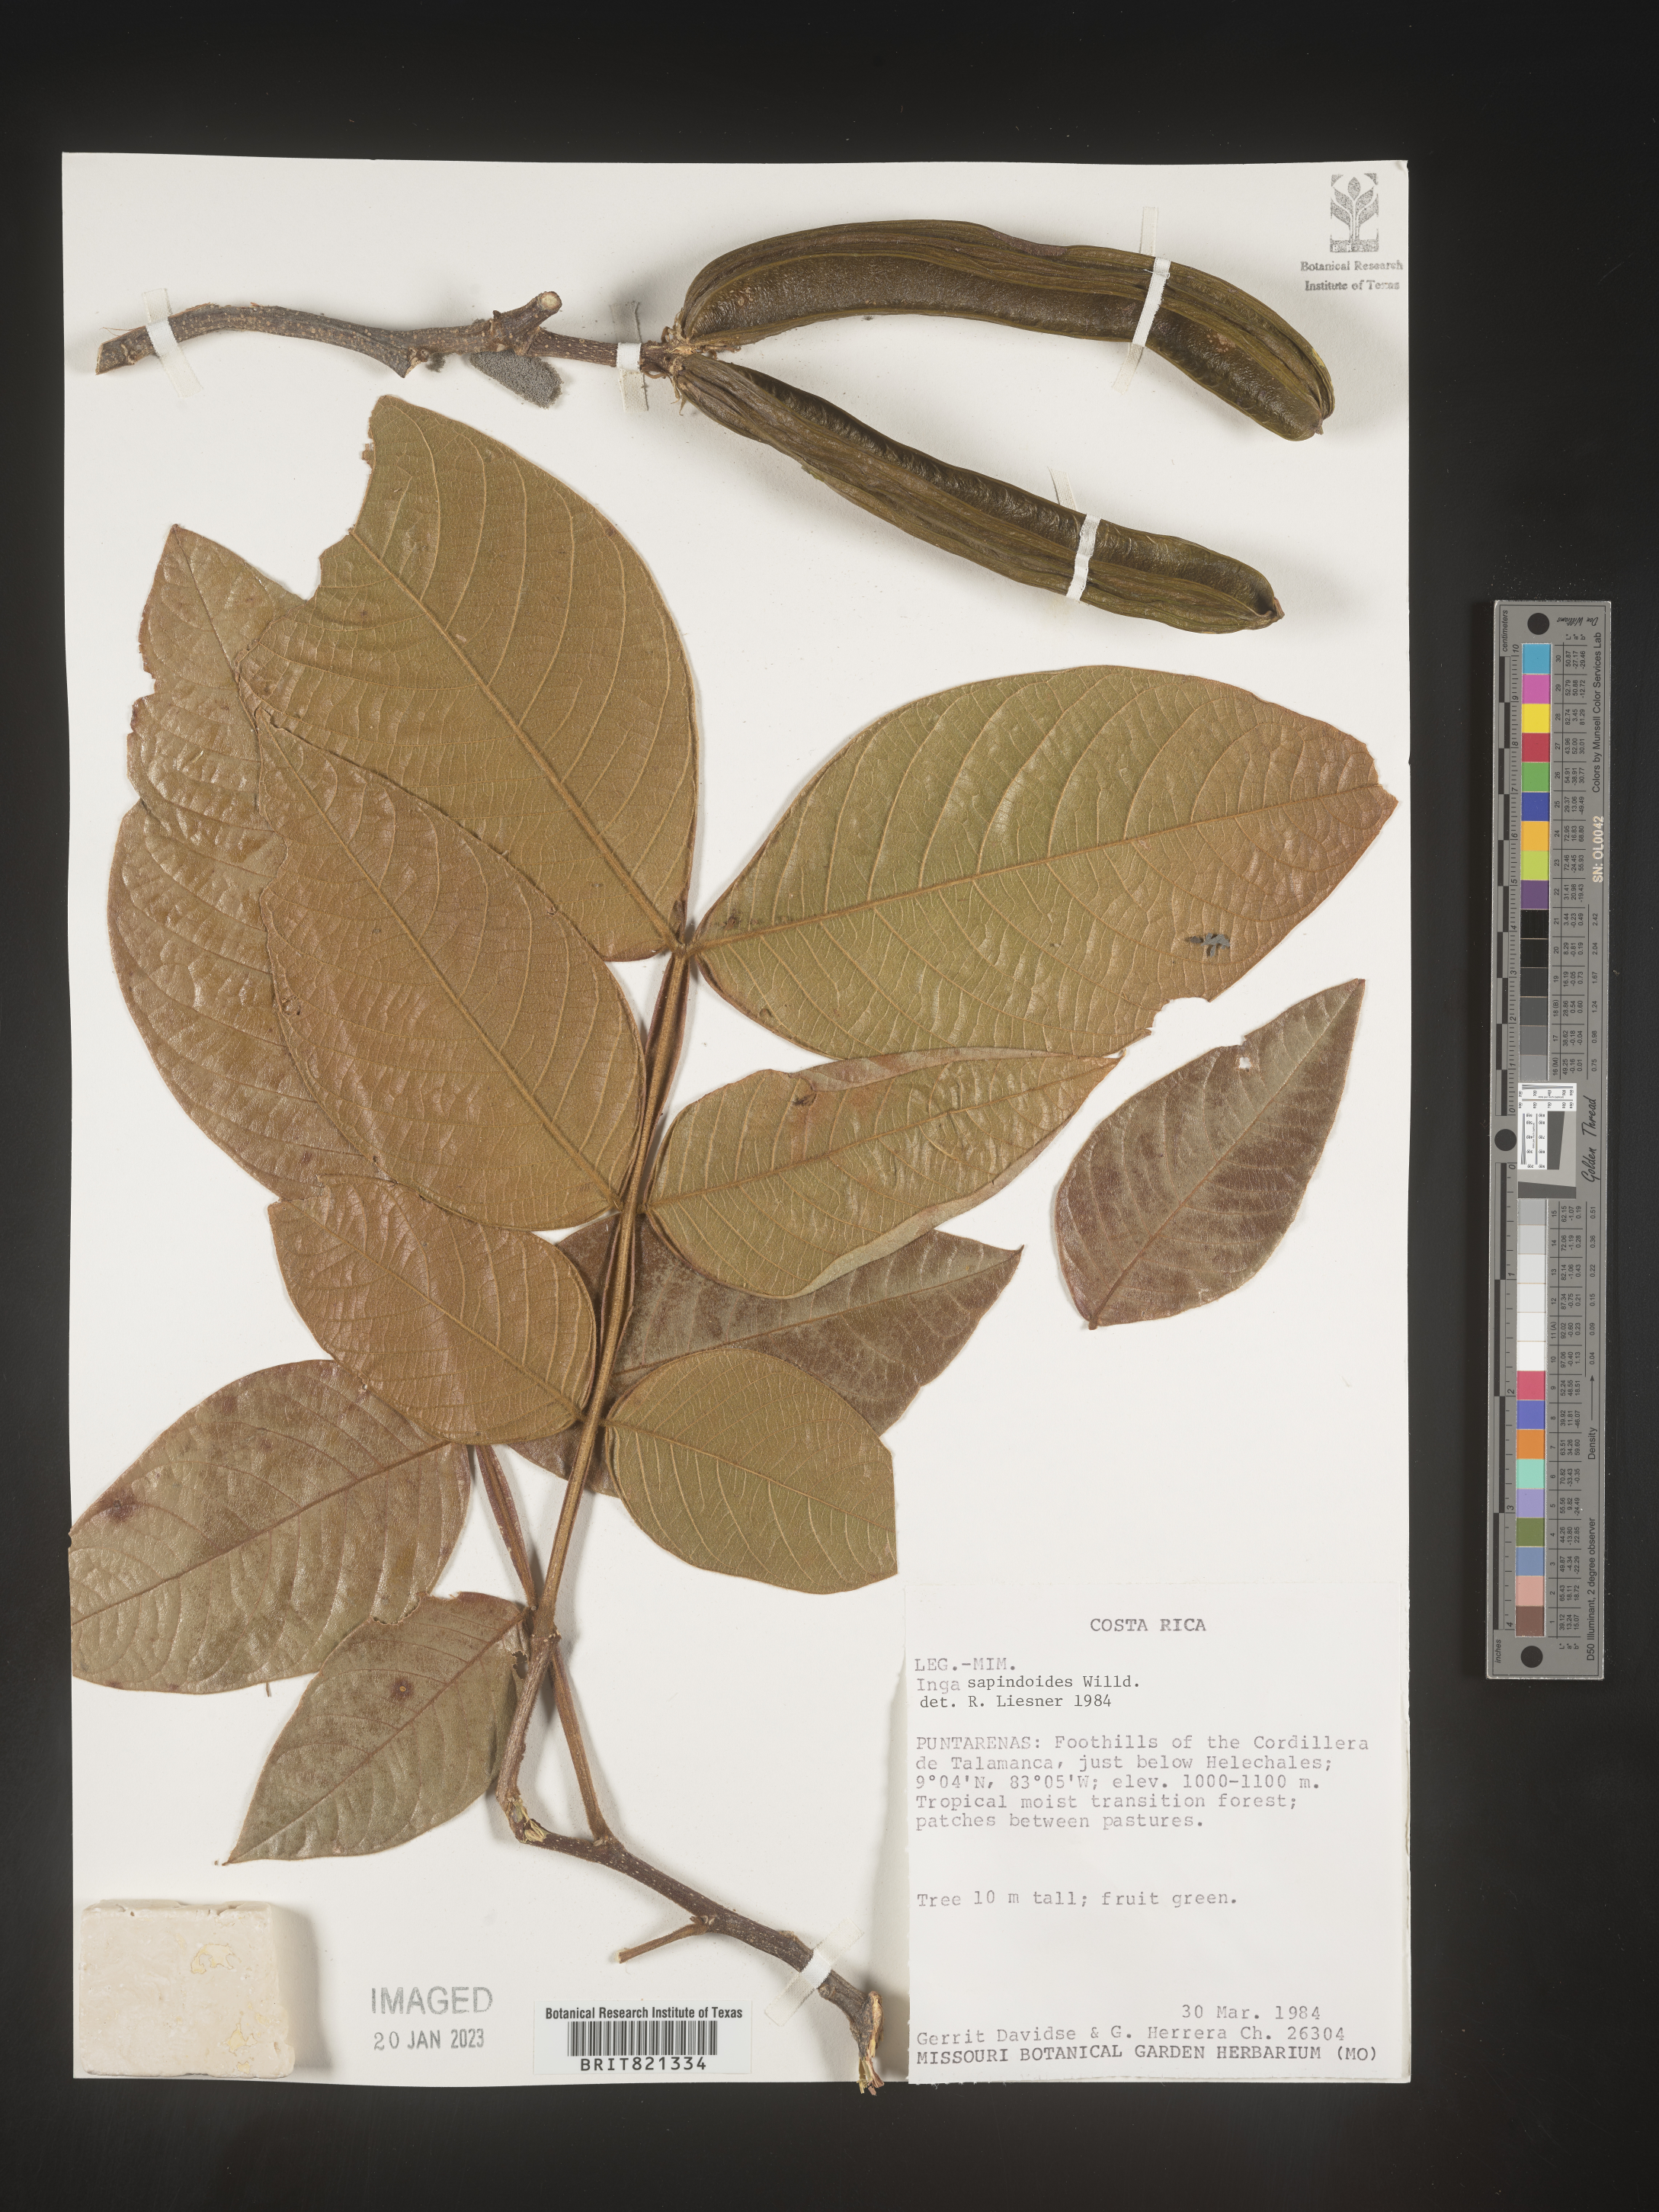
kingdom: Plantae
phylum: Tracheophyta
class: Magnoliopsida
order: Fabales
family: Fabaceae
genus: Inga
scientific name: Inga
